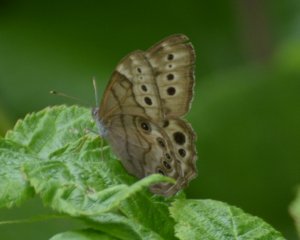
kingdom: Animalia
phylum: Arthropoda
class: Insecta
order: Lepidoptera
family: Nymphalidae
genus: Lethe
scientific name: Lethe anthedon
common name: Northern Pearly-Eye
